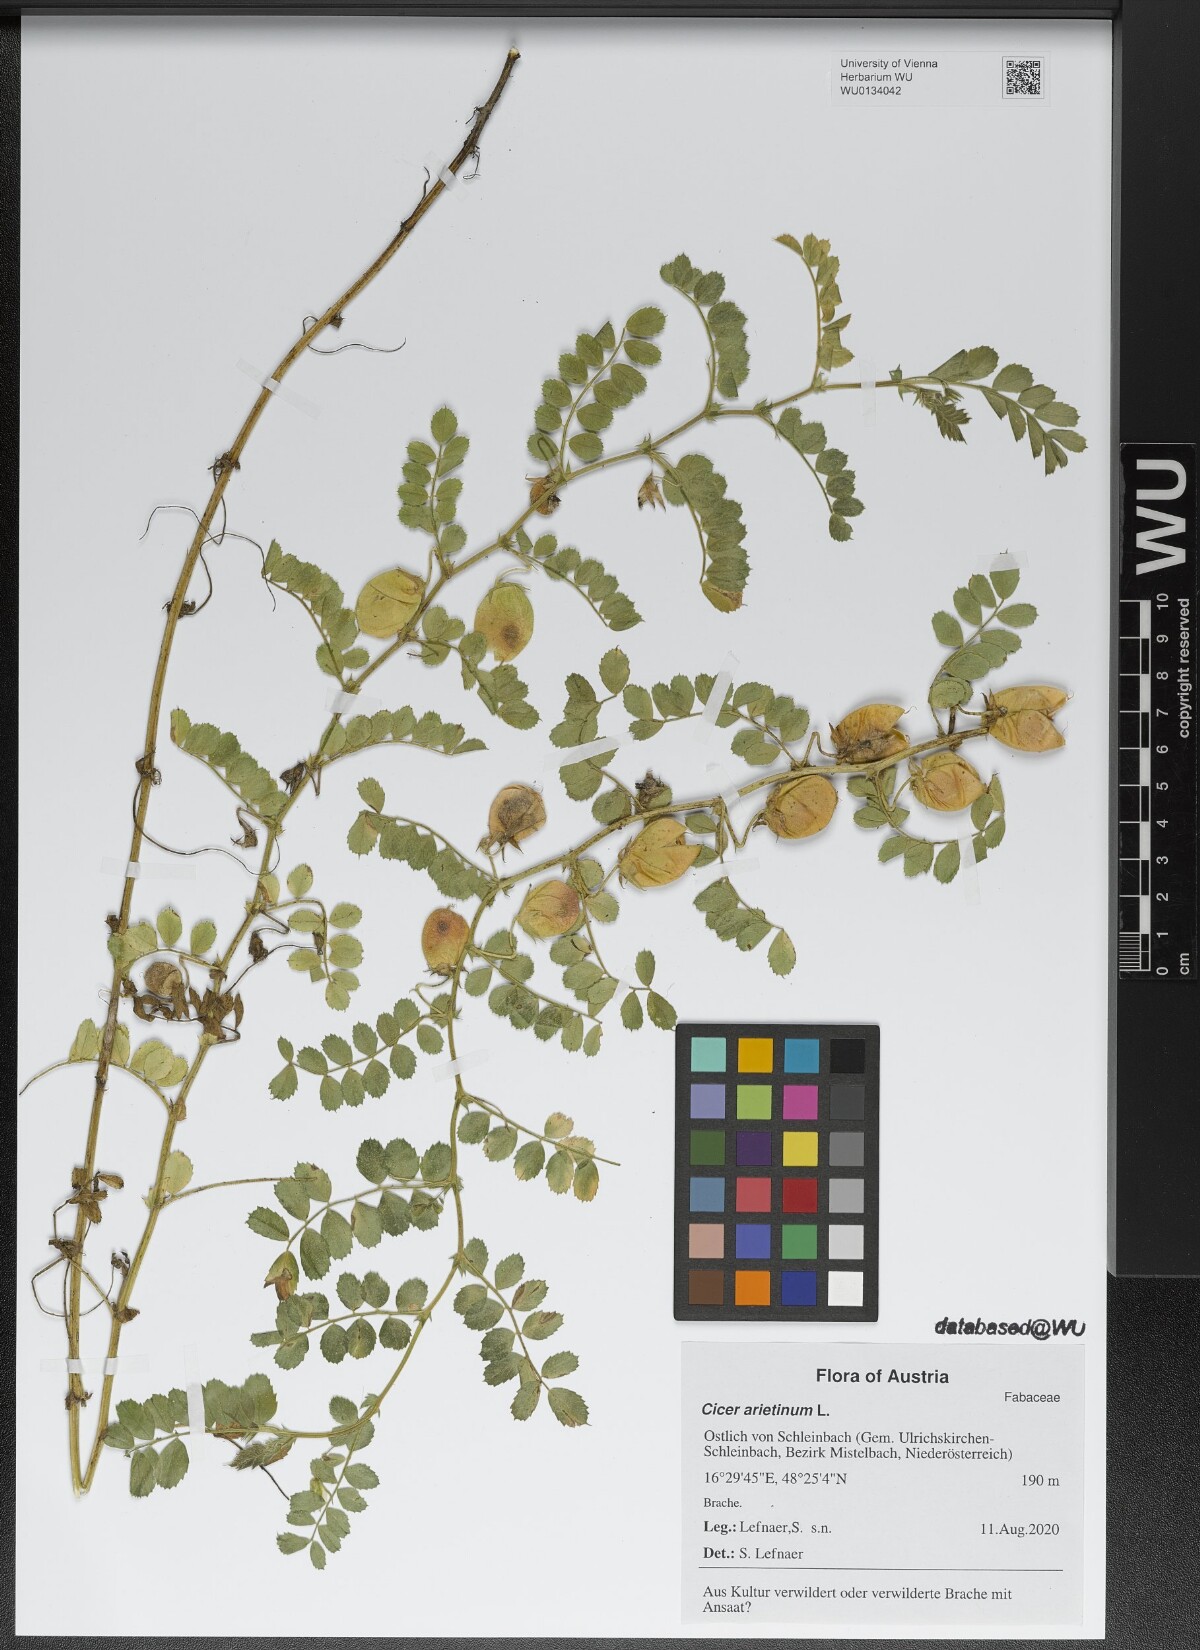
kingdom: Plantae
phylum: Tracheophyta
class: Magnoliopsida
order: Fabales
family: Fabaceae
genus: Cicer
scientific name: Cicer arietinum
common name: Chick pea
